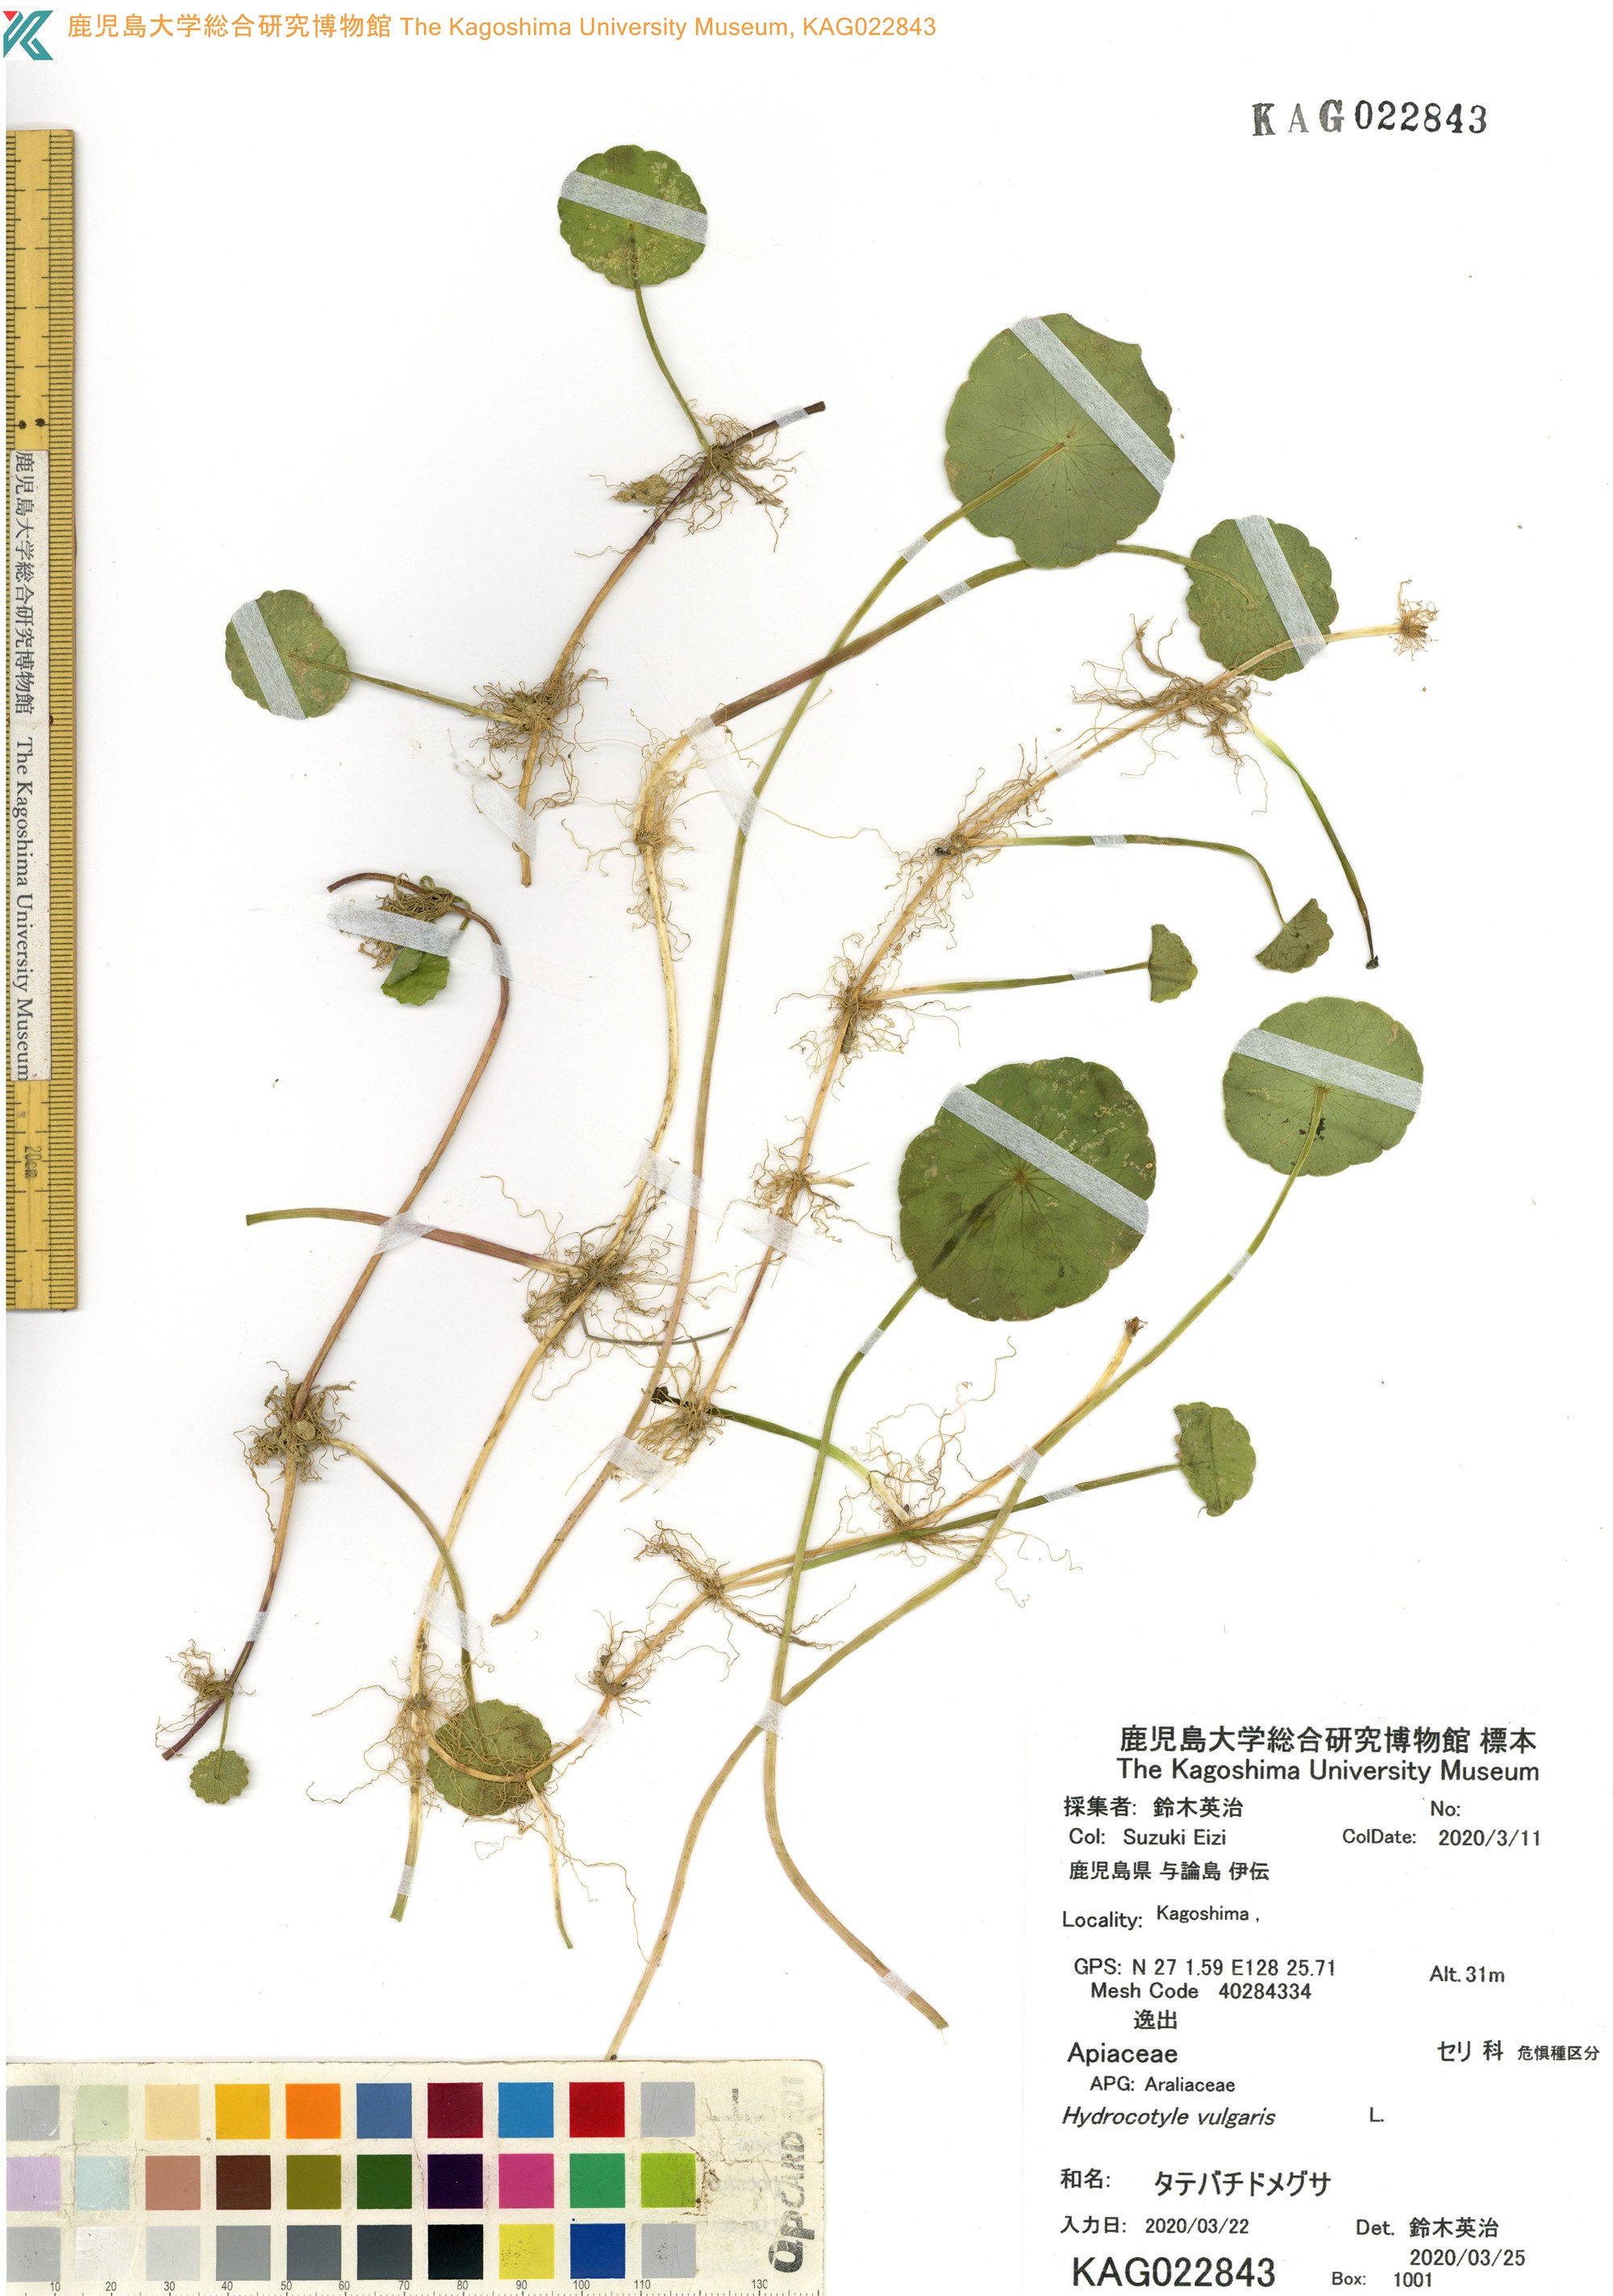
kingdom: Plantae
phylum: Tracheophyta
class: Magnoliopsida
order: Apiales
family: Araliaceae
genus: Hydrocotyle
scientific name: Hydrocotyle bonariensis
